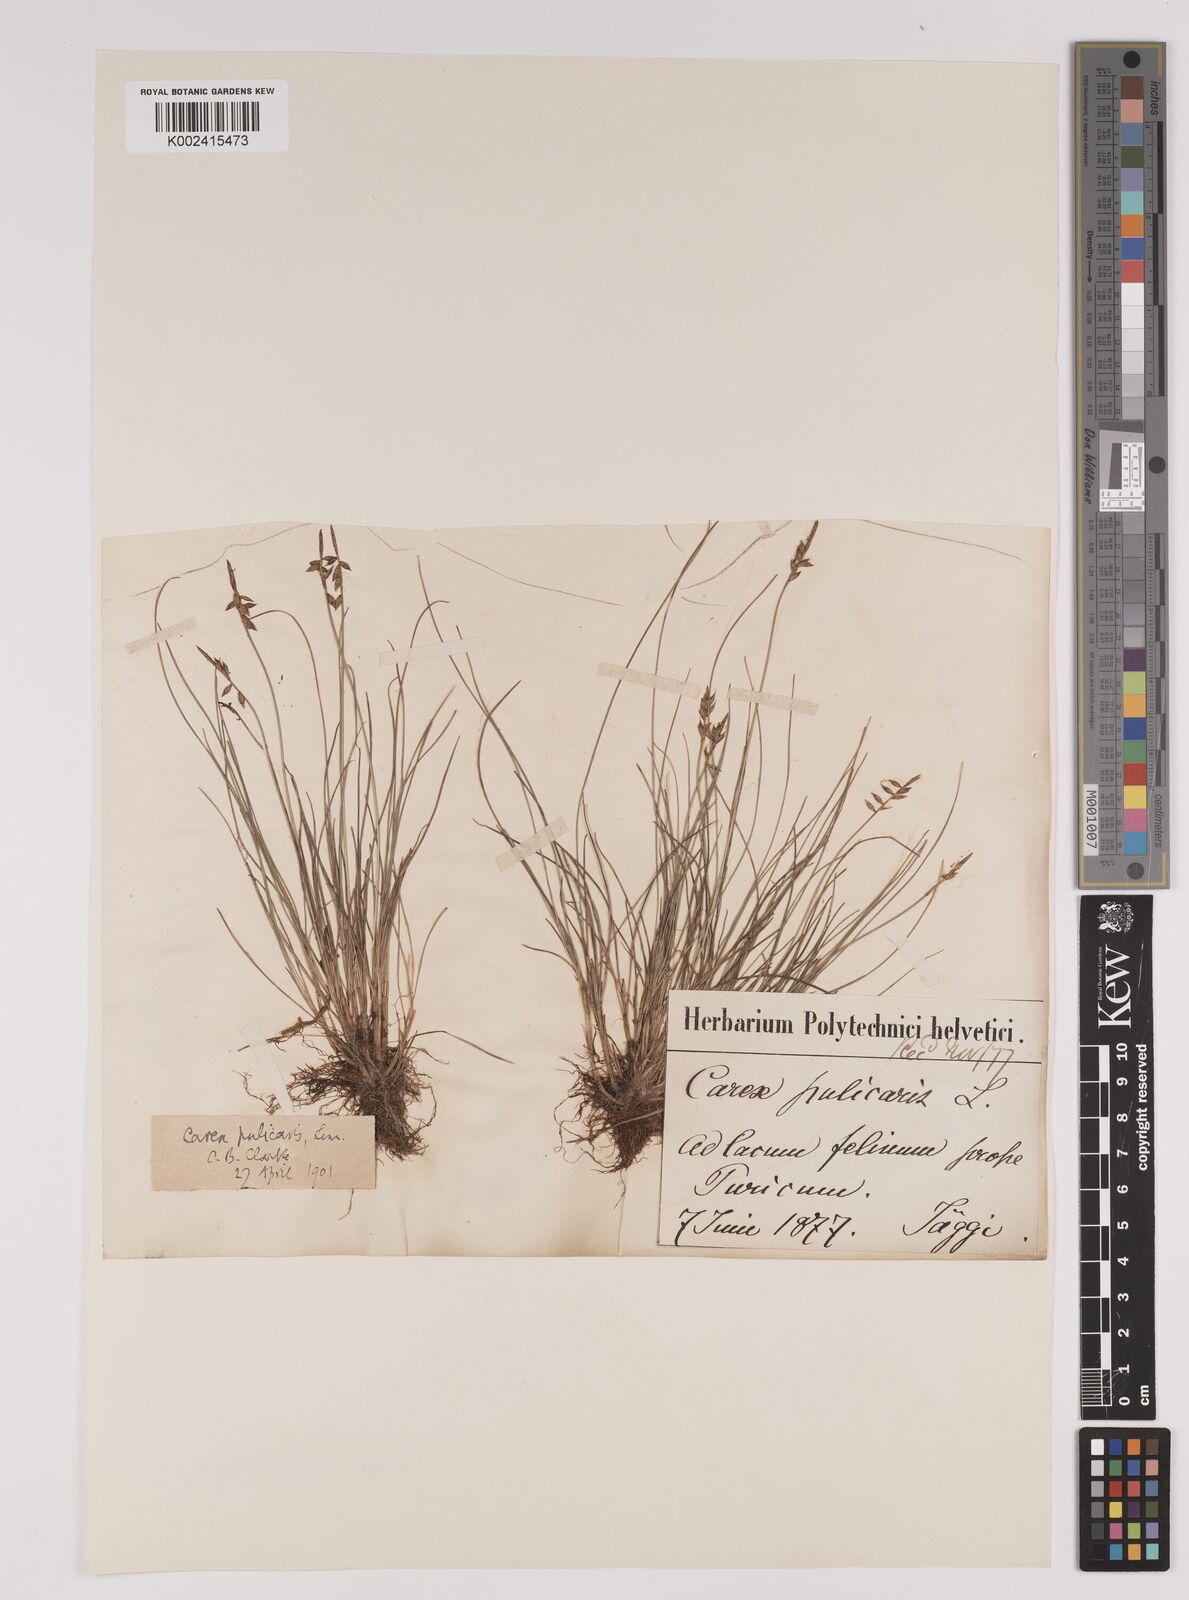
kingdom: Plantae
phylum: Tracheophyta
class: Liliopsida
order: Poales
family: Cyperaceae
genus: Carex
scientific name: Carex pulicaris
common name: Flea sedge
